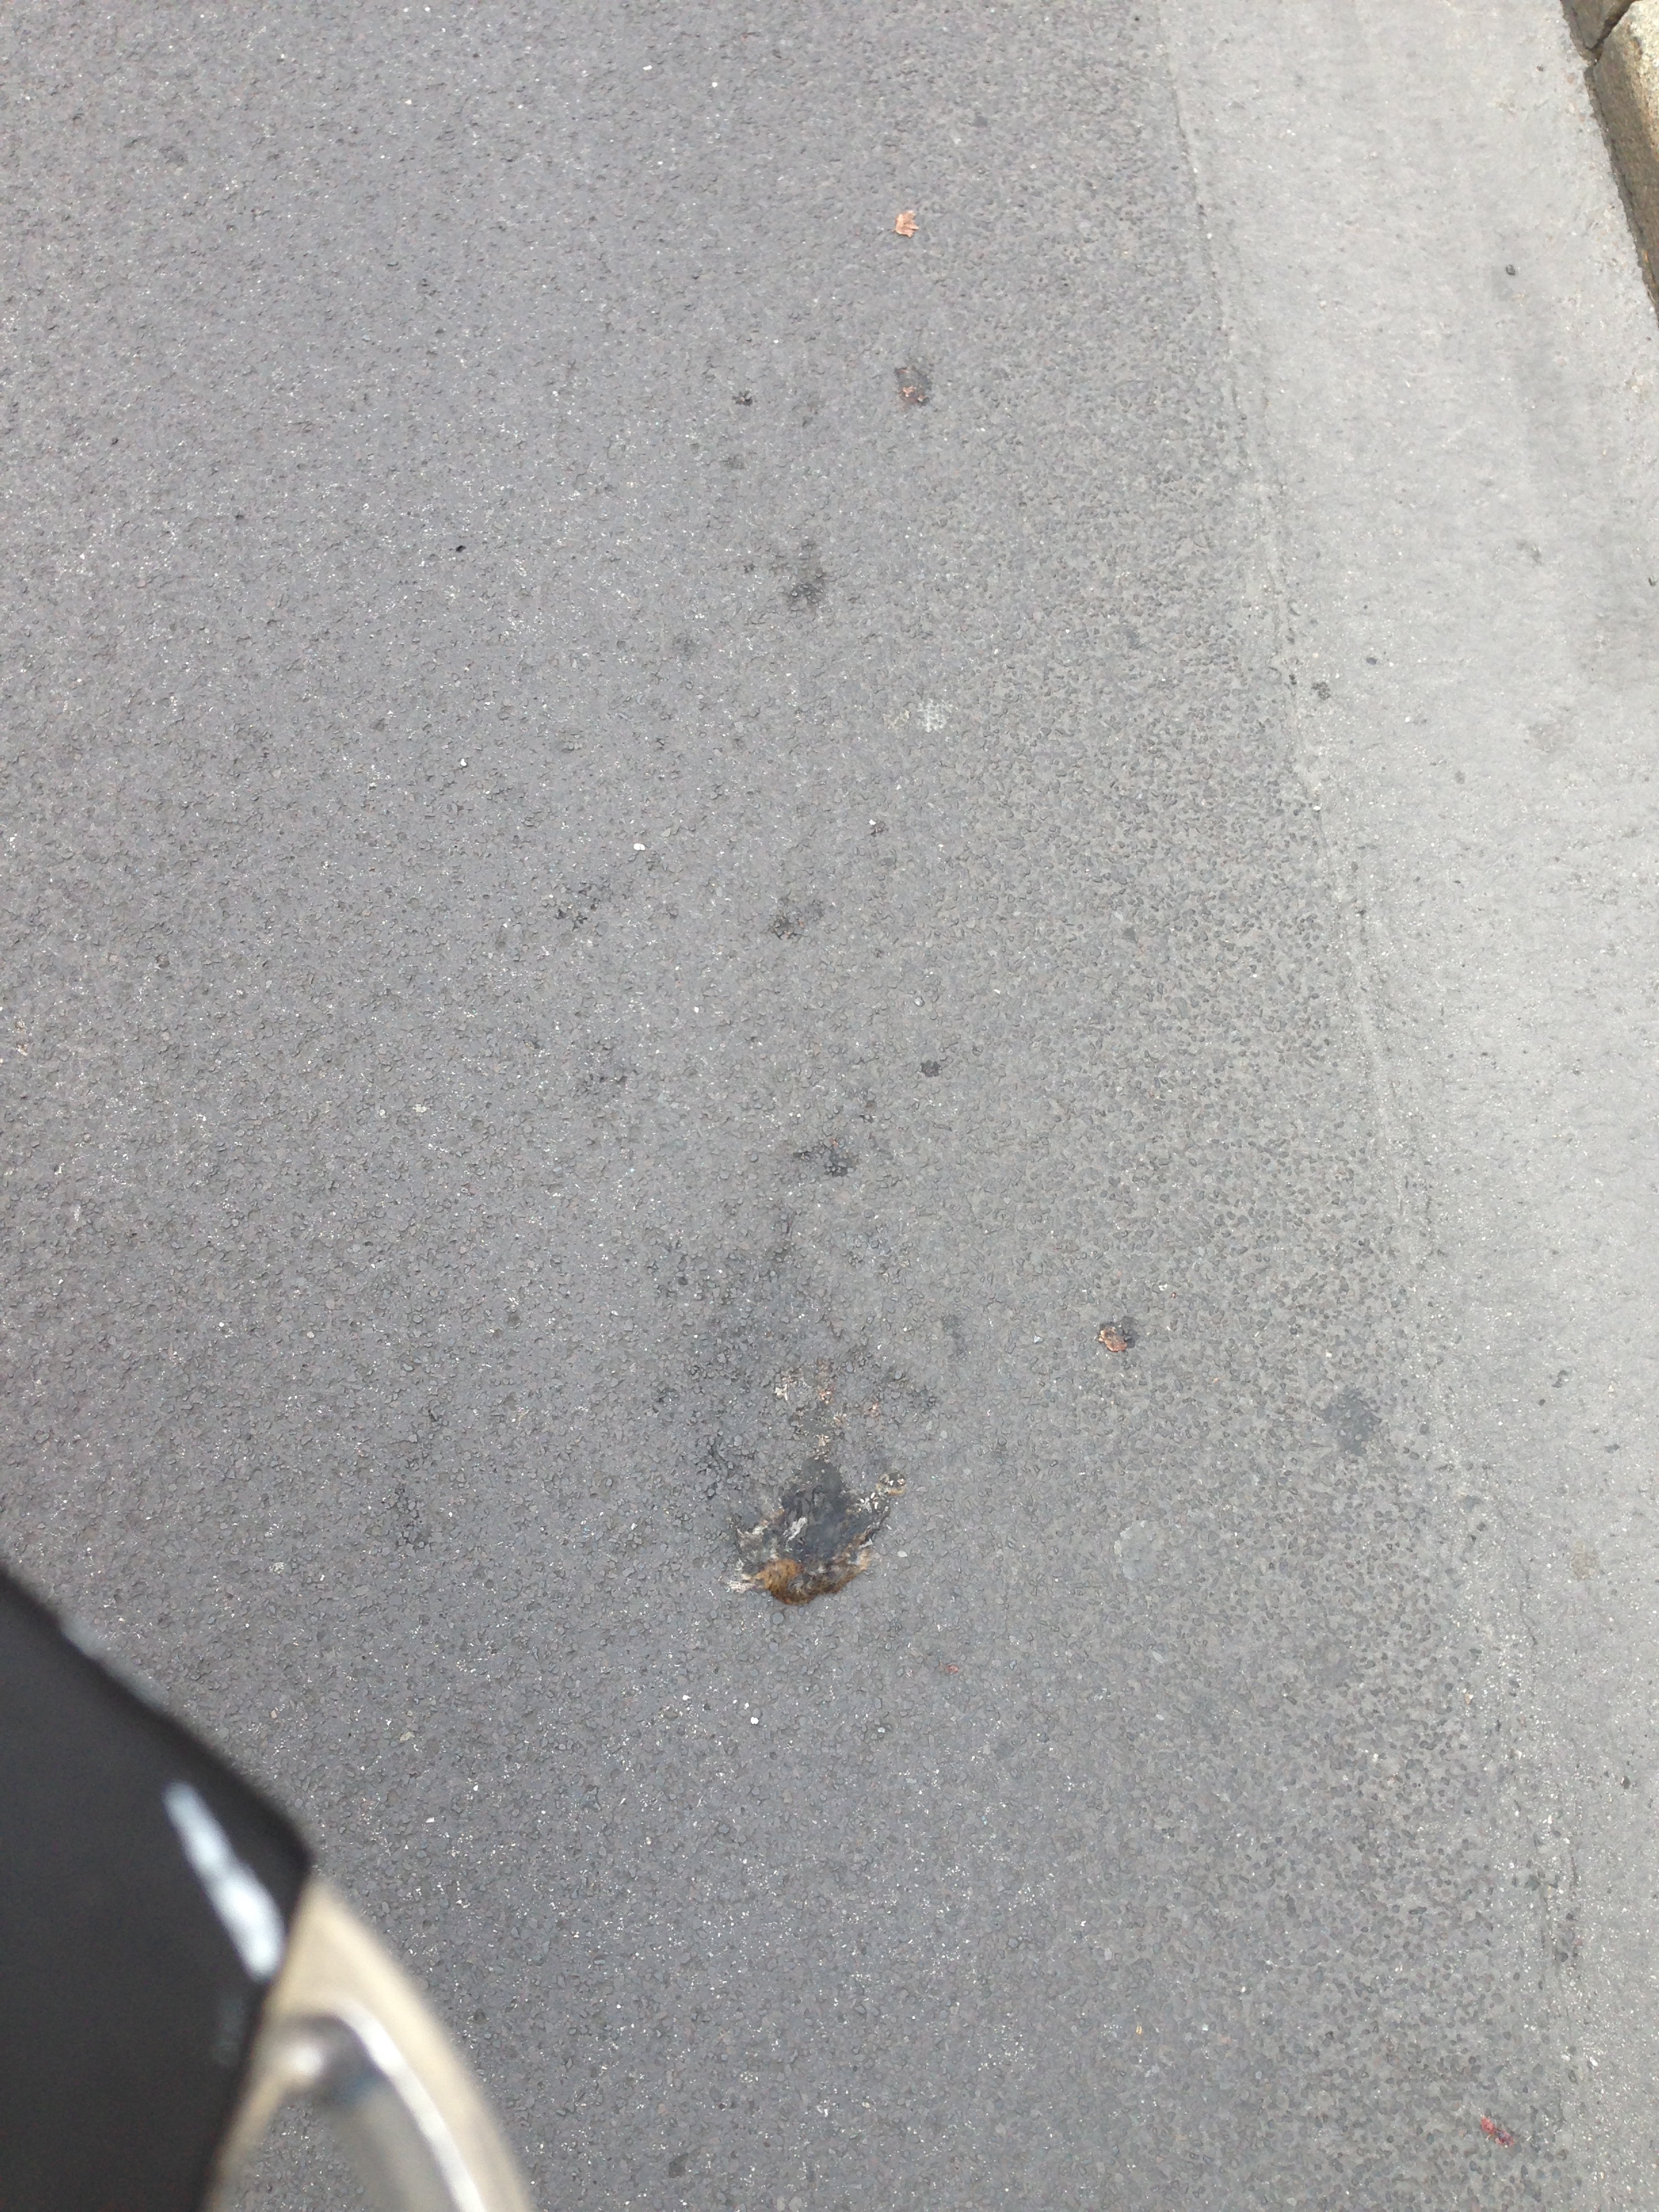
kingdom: Animalia
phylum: Chordata
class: Mammalia
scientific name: Mammalia
